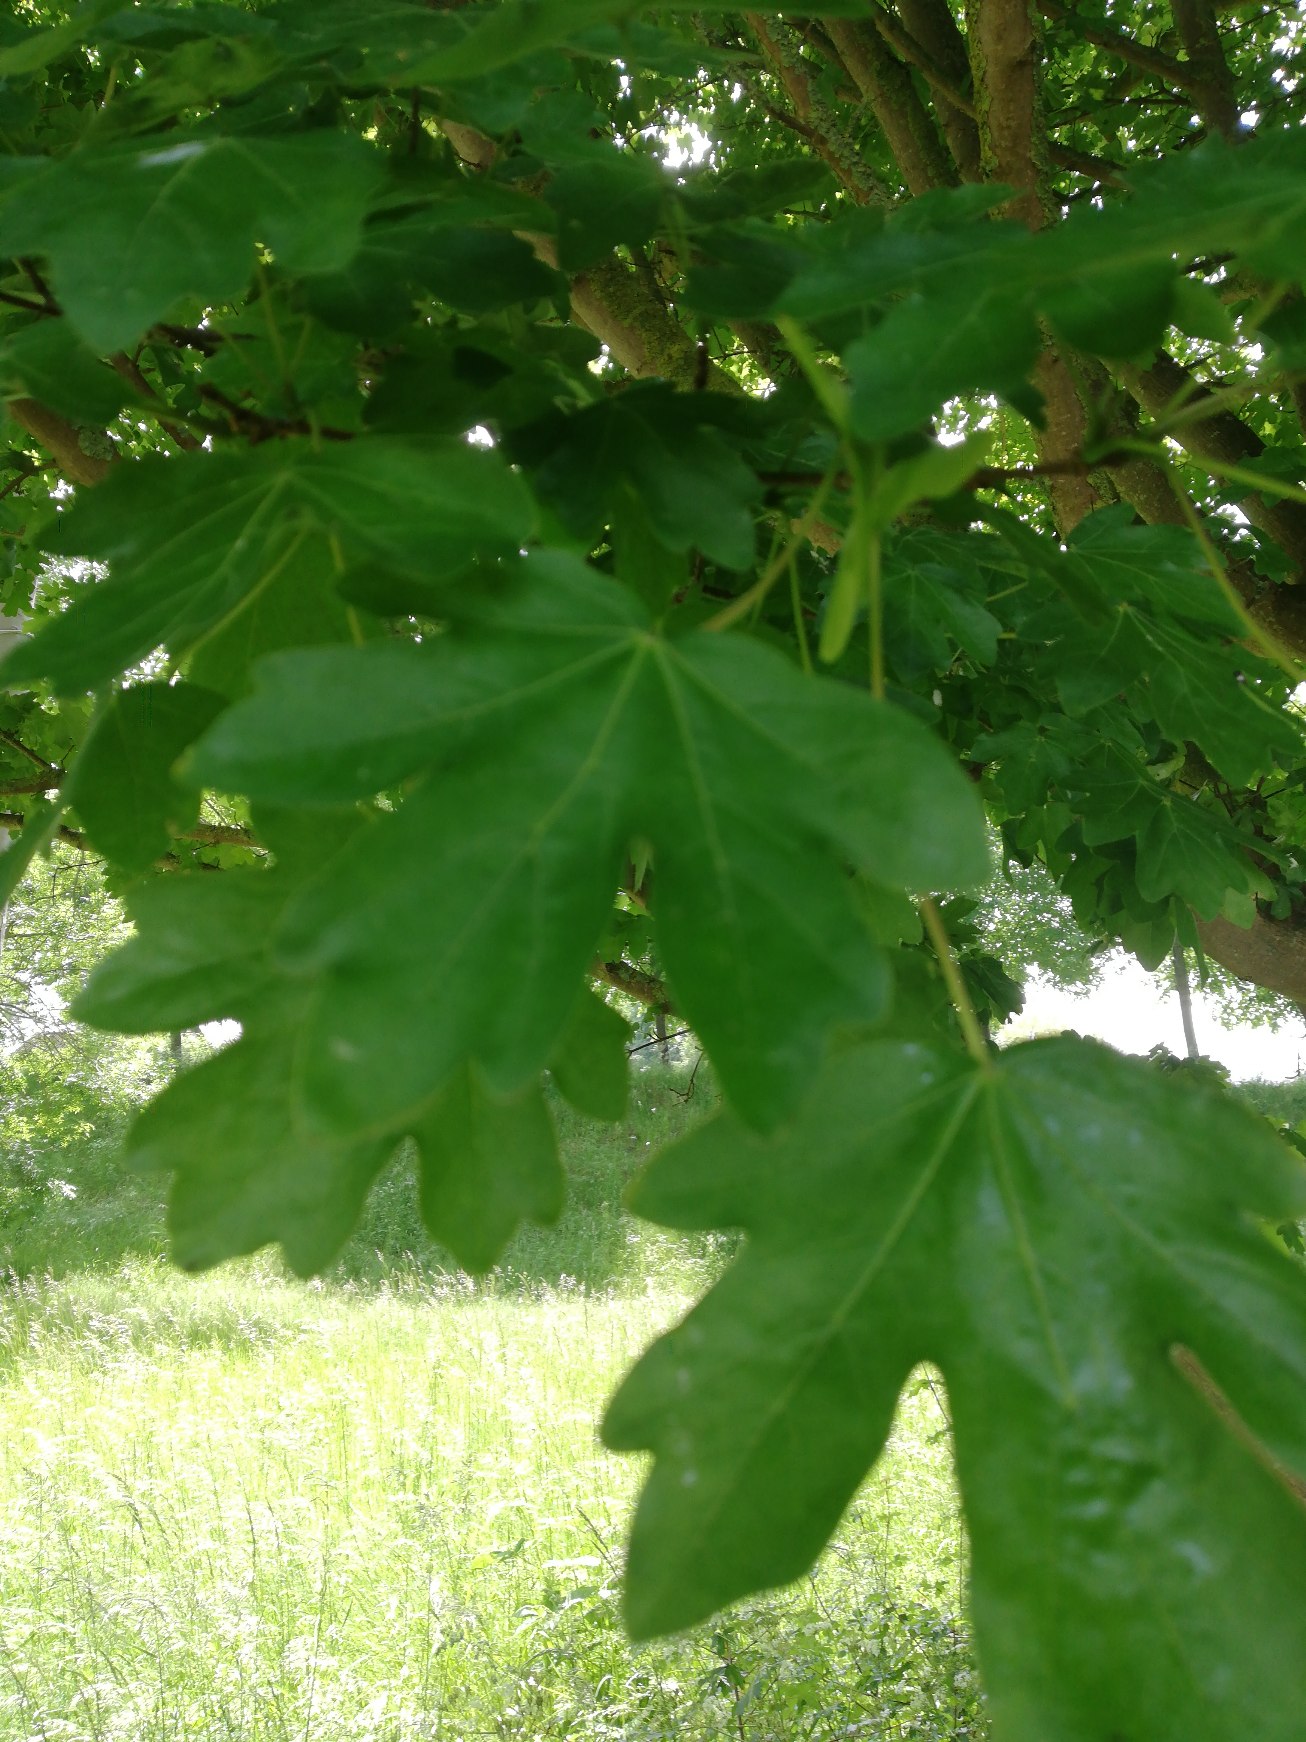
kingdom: Plantae
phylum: Tracheophyta
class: Magnoliopsida
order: Sapindales
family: Sapindaceae
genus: Acer
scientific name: Acer campestre
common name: Navr
